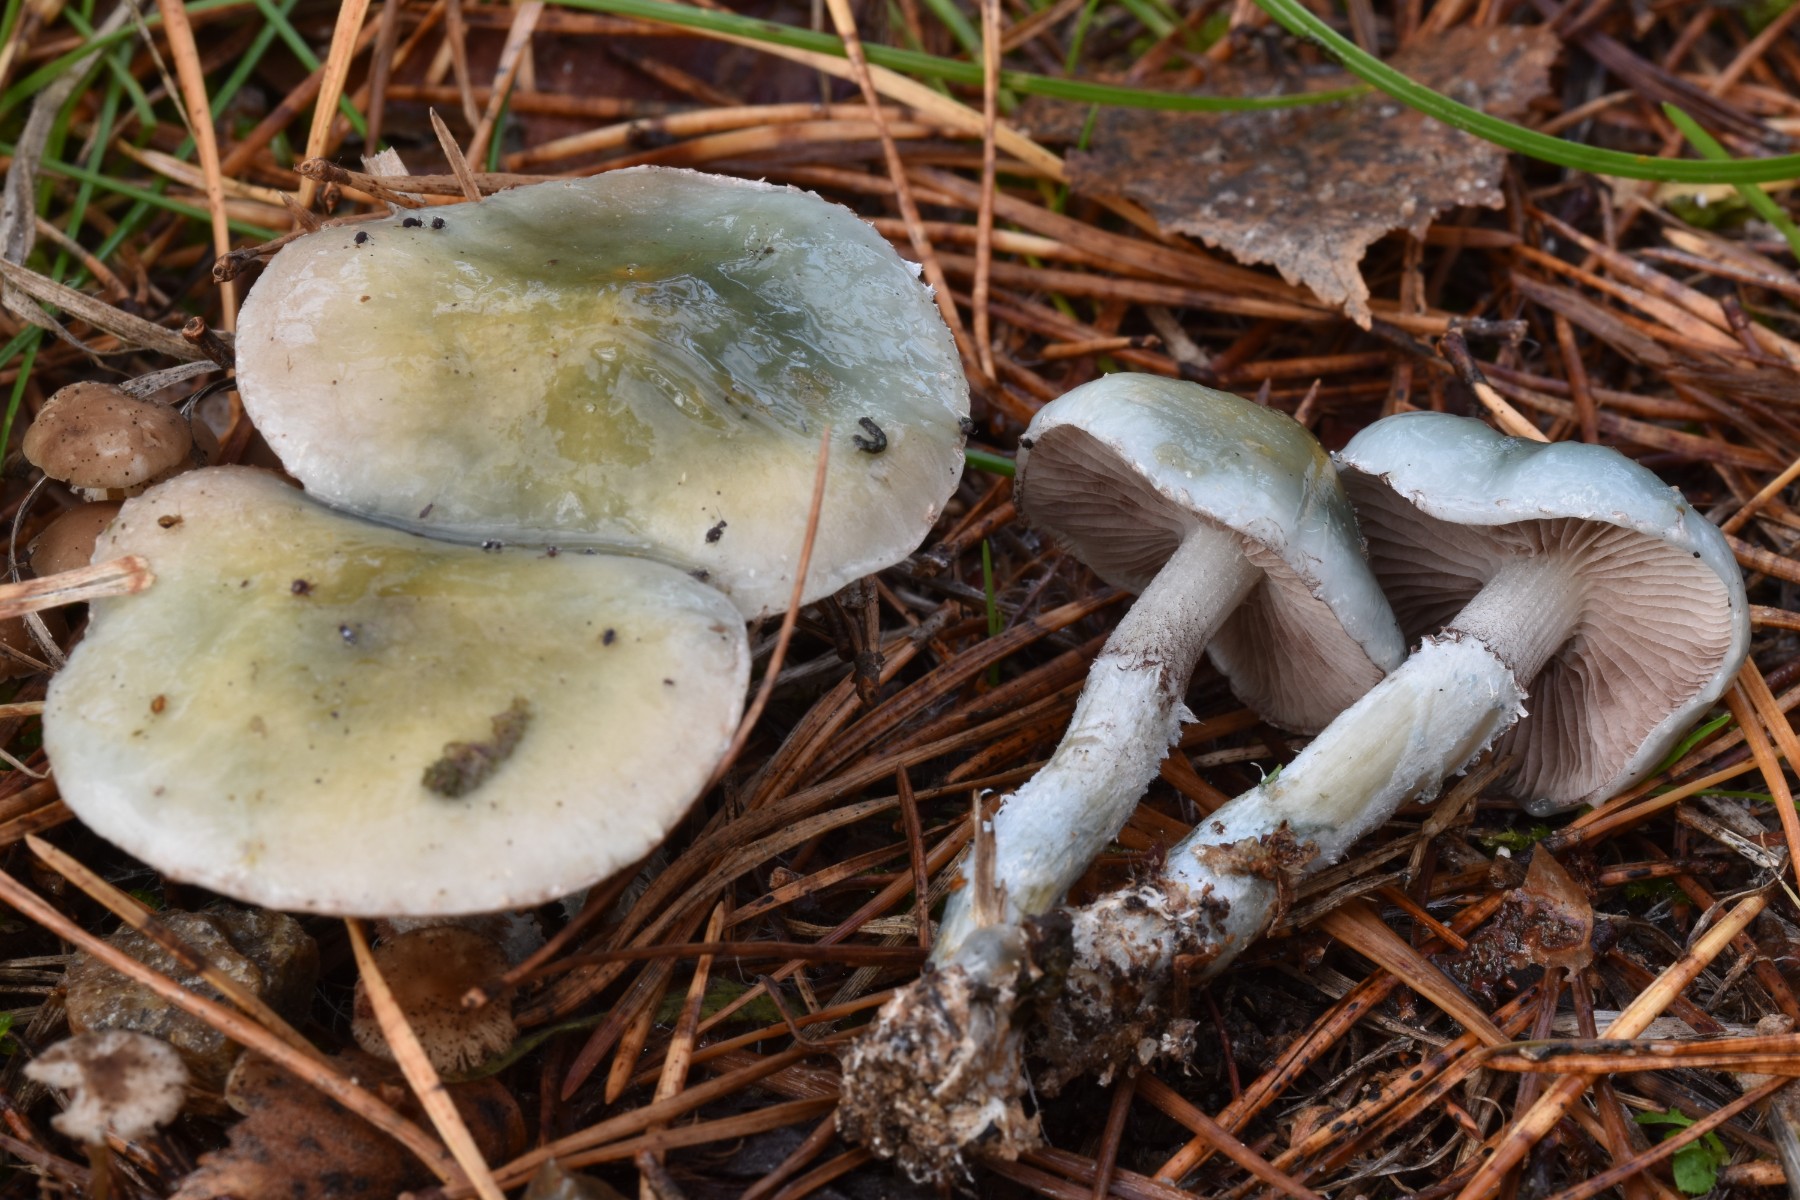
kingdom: Fungi
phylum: Basidiomycota
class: Agaricomycetes
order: Agaricales
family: Strophariaceae
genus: Stropharia
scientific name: Stropharia aeruginosa
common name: spanskgrøn bredblad
